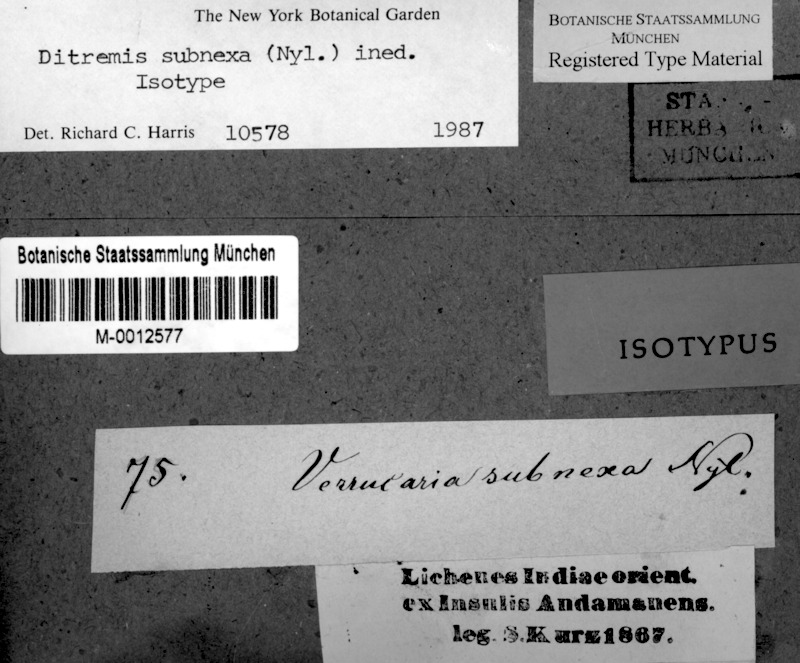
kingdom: Fungi
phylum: Ascomycota
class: Dothideomycetes
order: Monoblastiales
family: Monoblastiaceae
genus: Anisomeridium
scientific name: Anisomeridium subnexum
